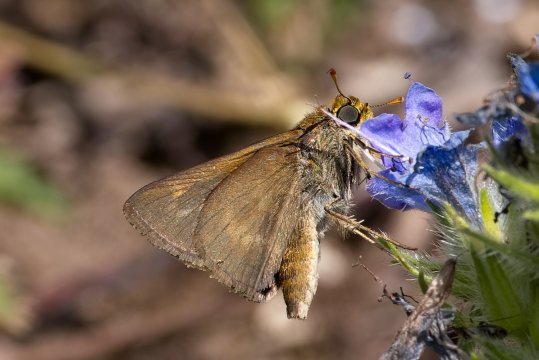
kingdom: Animalia
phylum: Arthropoda
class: Insecta
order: Lepidoptera
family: Hesperiidae
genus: Polites
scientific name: Polites egeremet
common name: Northern Broken-Dash
